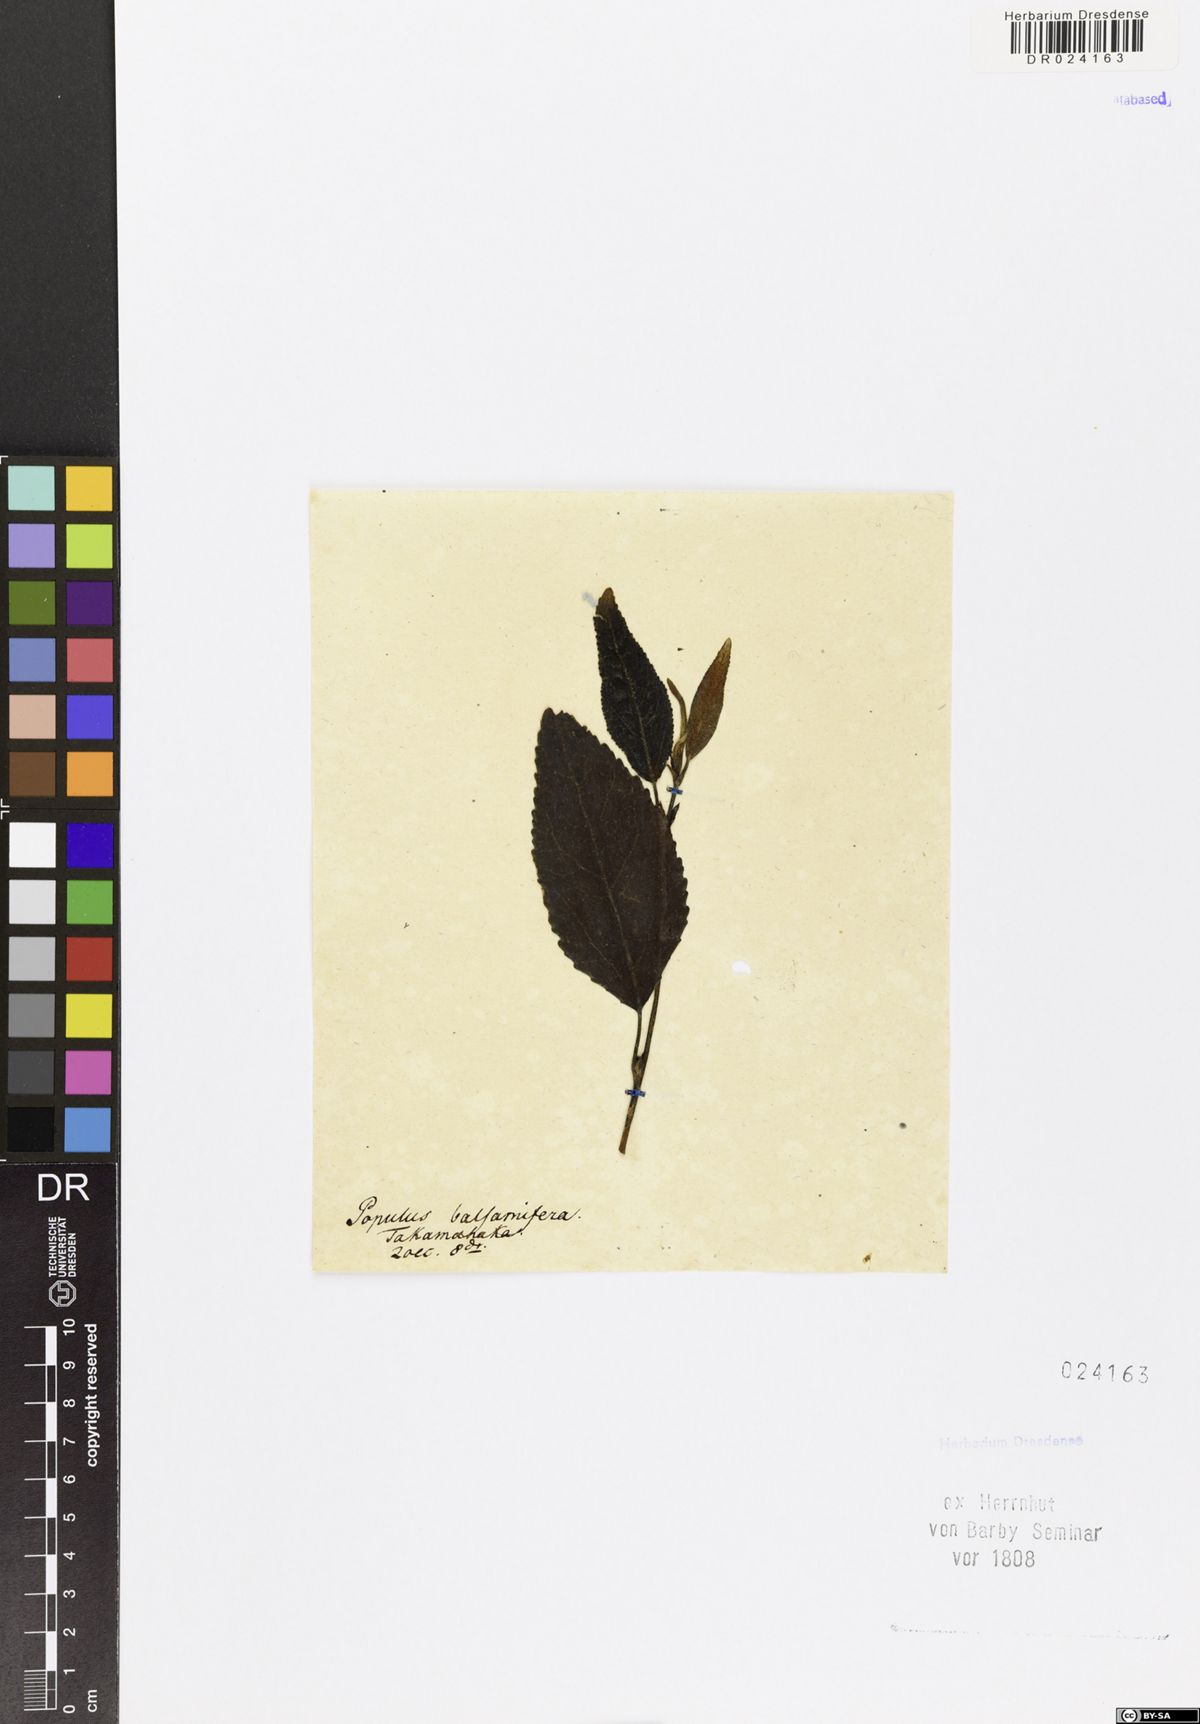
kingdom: Plantae
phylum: Tracheophyta
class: Magnoliopsida
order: Malpighiales
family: Salicaceae
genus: Populus
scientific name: Populus balsamifera
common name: Balsam poplar
